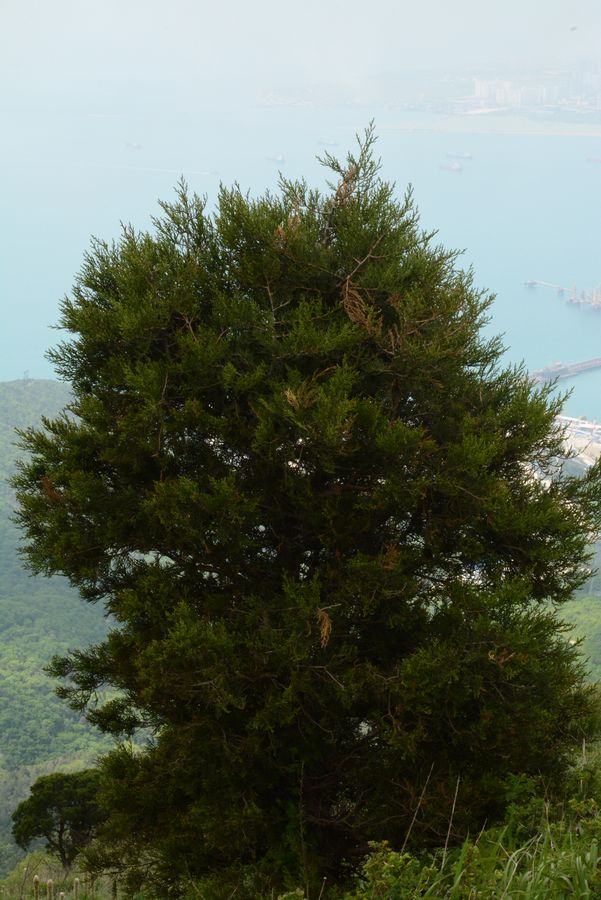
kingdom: Plantae
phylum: Tracheophyta
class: Pinopsida
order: Pinales
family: Cupressaceae
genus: Juniperus
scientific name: Juniperus foetidissima
